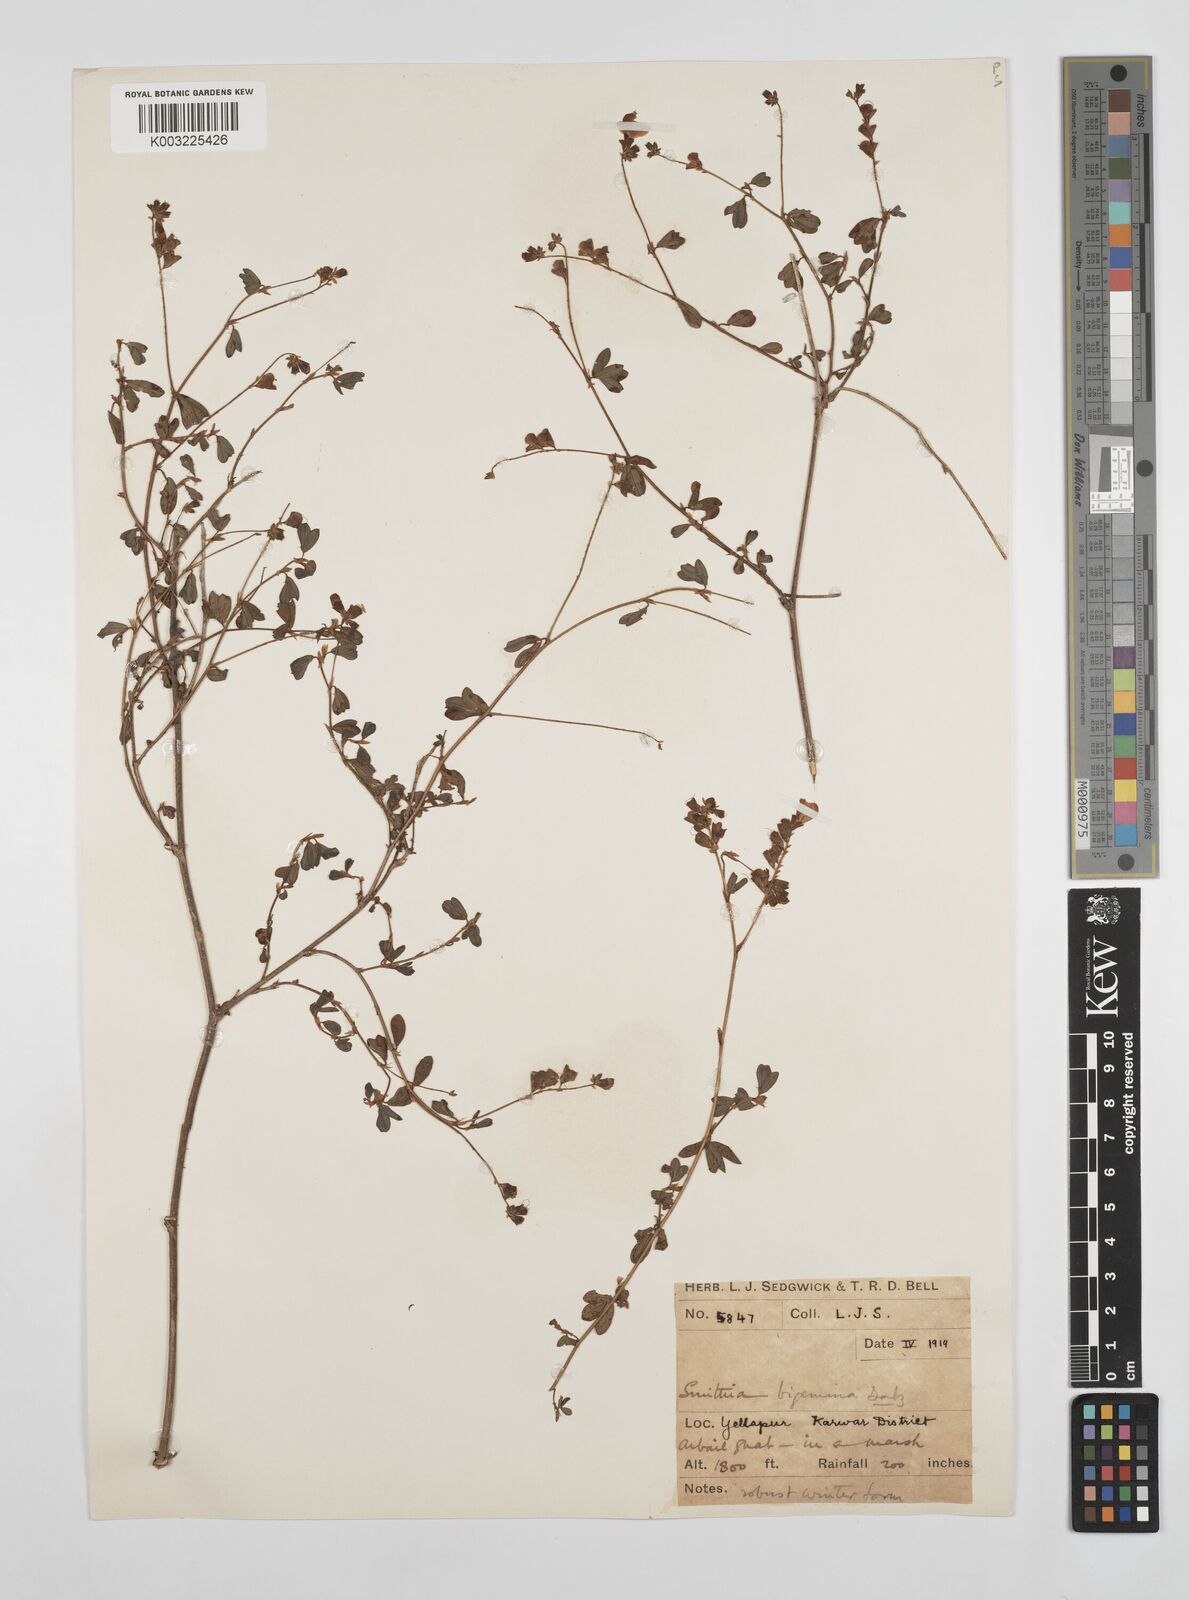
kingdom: Plantae
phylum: Tracheophyta
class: Magnoliopsida
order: Fabales
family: Fabaceae
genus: Smithia
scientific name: Smithia bigemina
